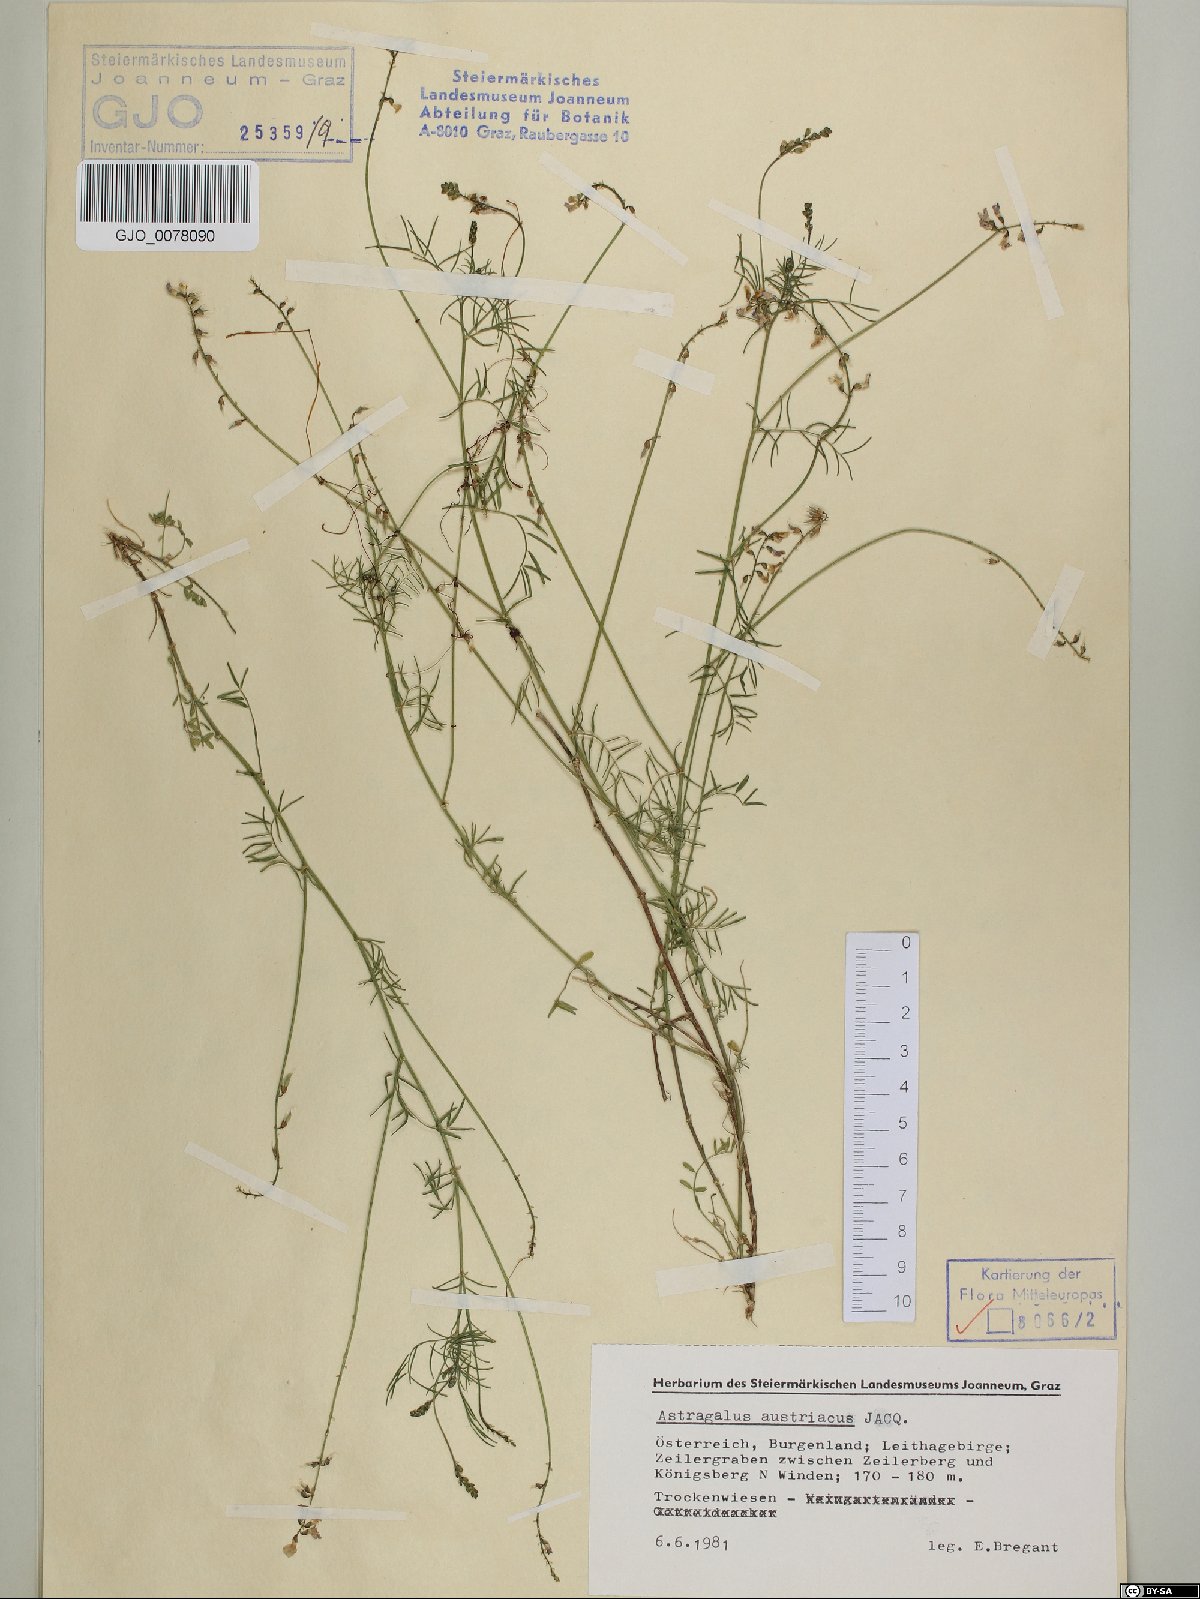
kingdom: Plantae
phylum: Tracheophyta
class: Magnoliopsida
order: Fabales
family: Fabaceae
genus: Astragalus
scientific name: Astragalus austriacus
